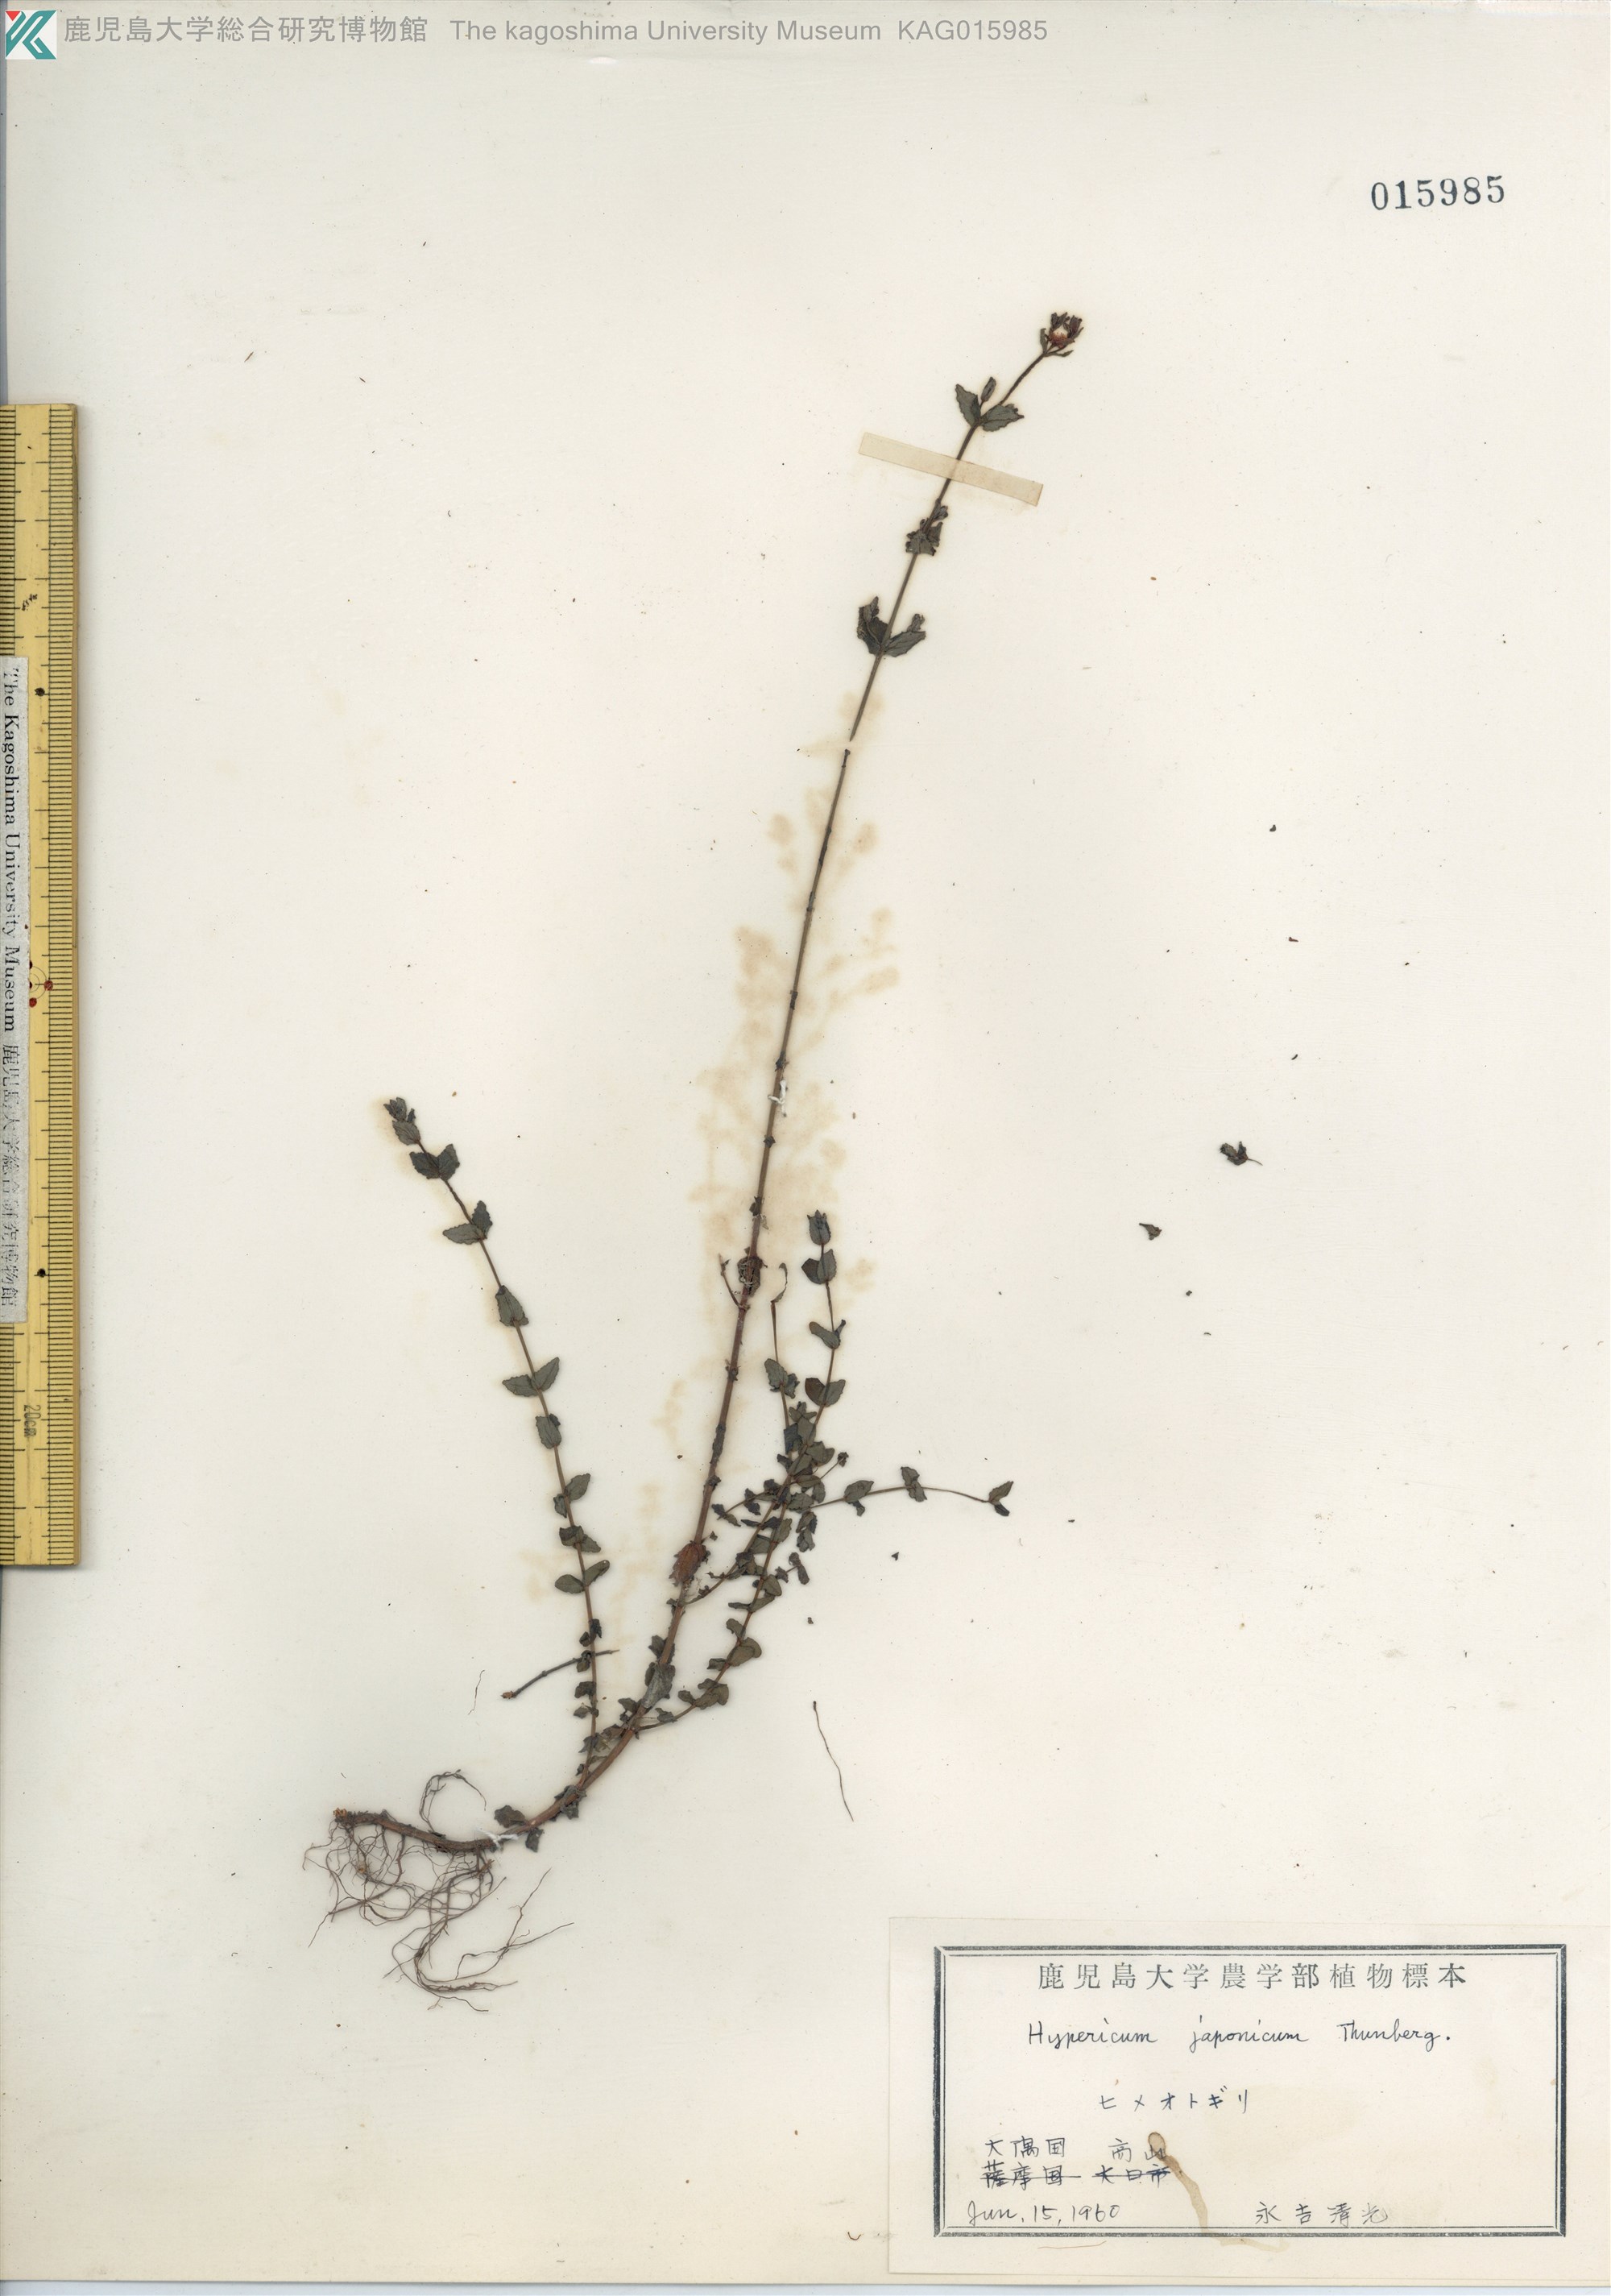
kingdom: Plantae
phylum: Tracheophyta
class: Magnoliopsida
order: Malpighiales
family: Hypericaceae
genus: Hypericum
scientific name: Hypericum japonicum
